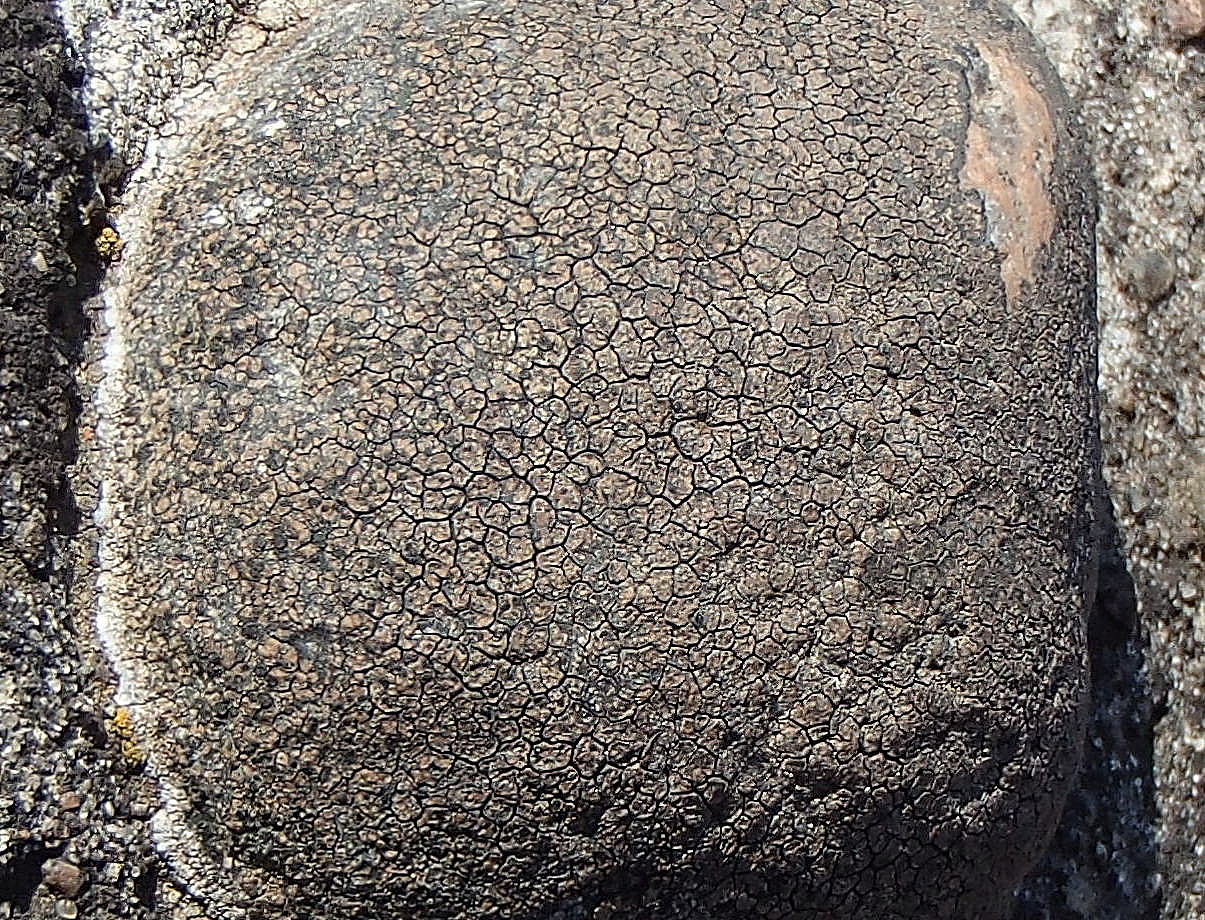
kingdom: Fungi
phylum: Ascomycota
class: Lecanoromycetes
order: Lecideales
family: Lecideaceae
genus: Lecidea
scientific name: Lecidea fuscoatra
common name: rudret skivelav
